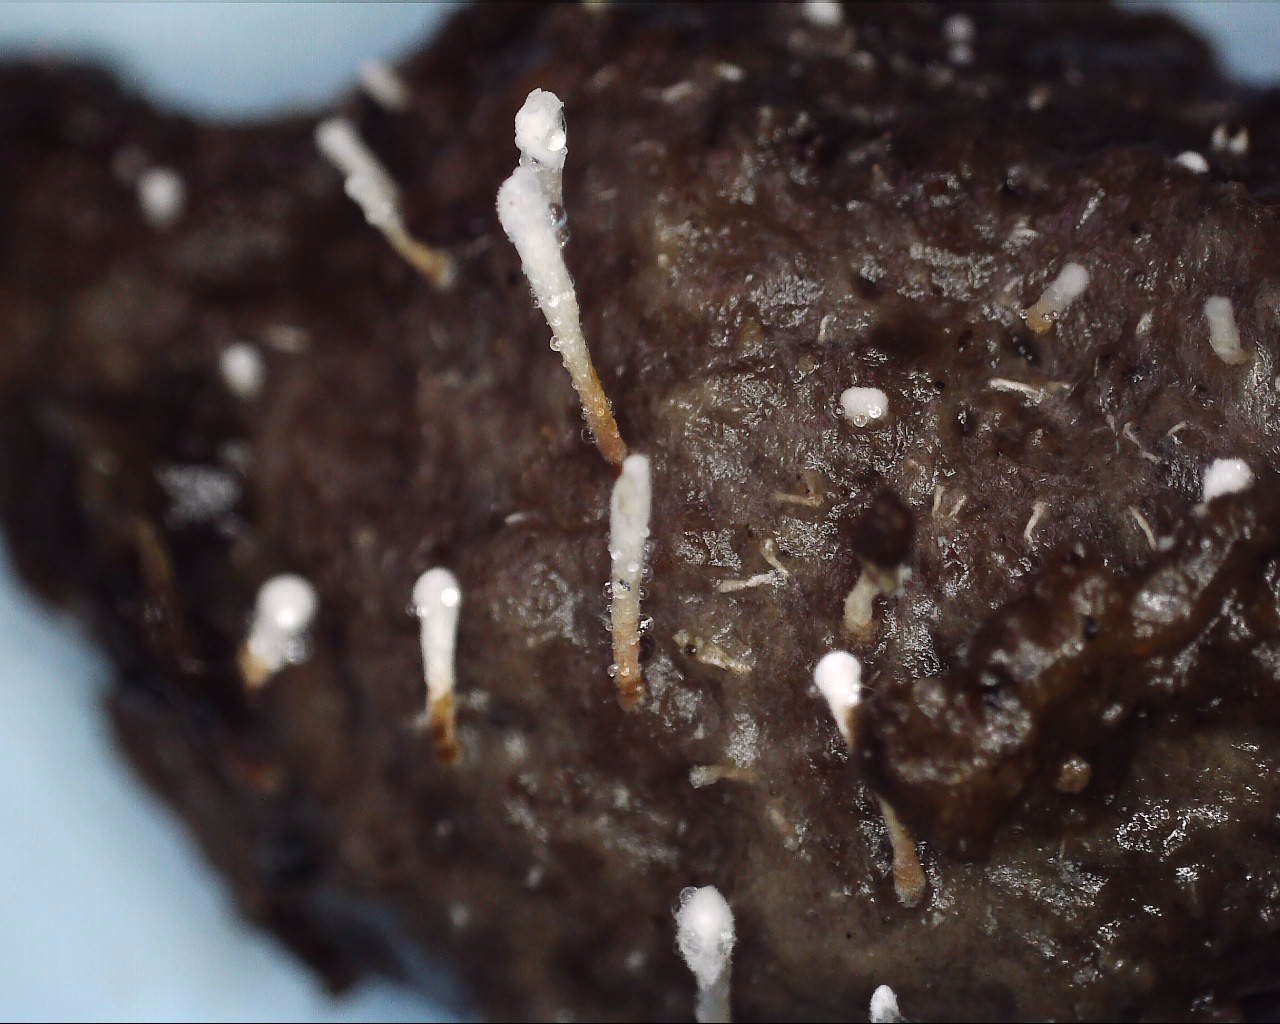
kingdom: Fungi
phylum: Ascomycota
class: Eurotiomycetes
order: Eurotiales
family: Aspergillaceae
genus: Penicillium
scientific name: Penicillium vulpinum
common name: kølle-penselskimmel
